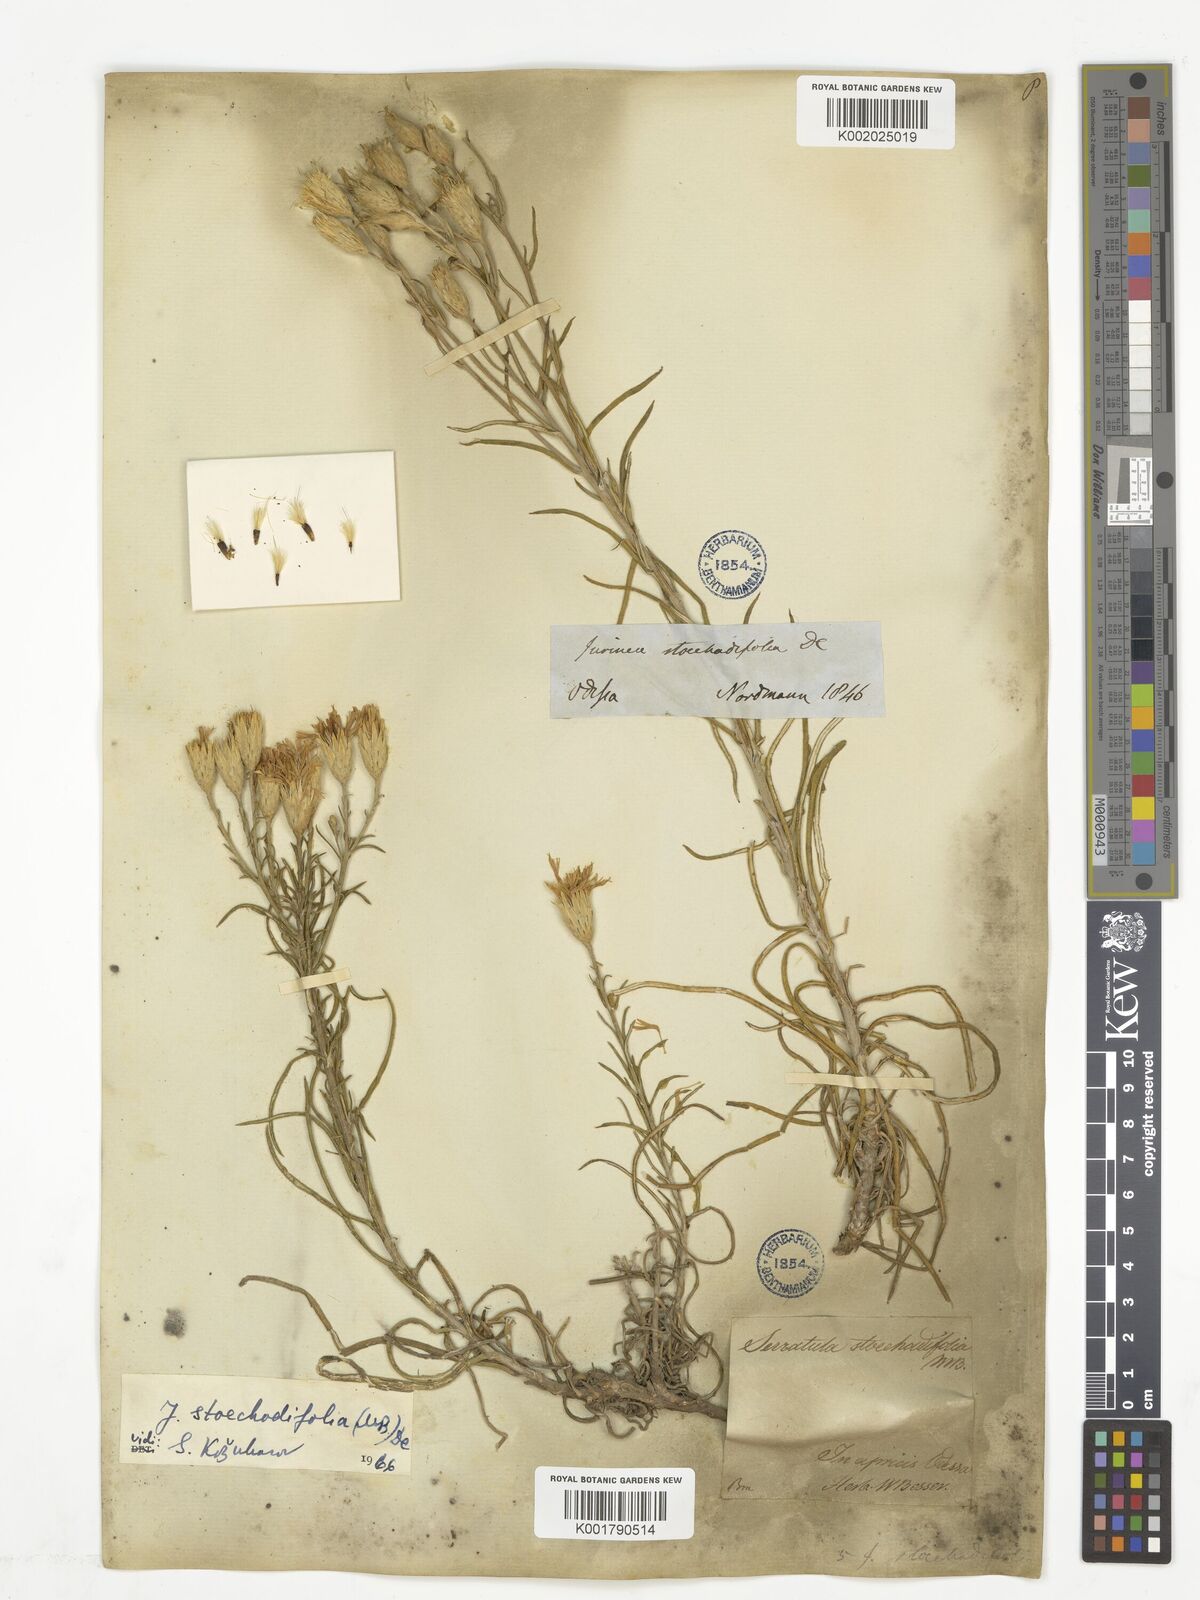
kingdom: Plantae
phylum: Tracheophyta
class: Magnoliopsida
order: Asterales
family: Asteraceae
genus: Jurinea
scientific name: Jurinea stoechadifolia
